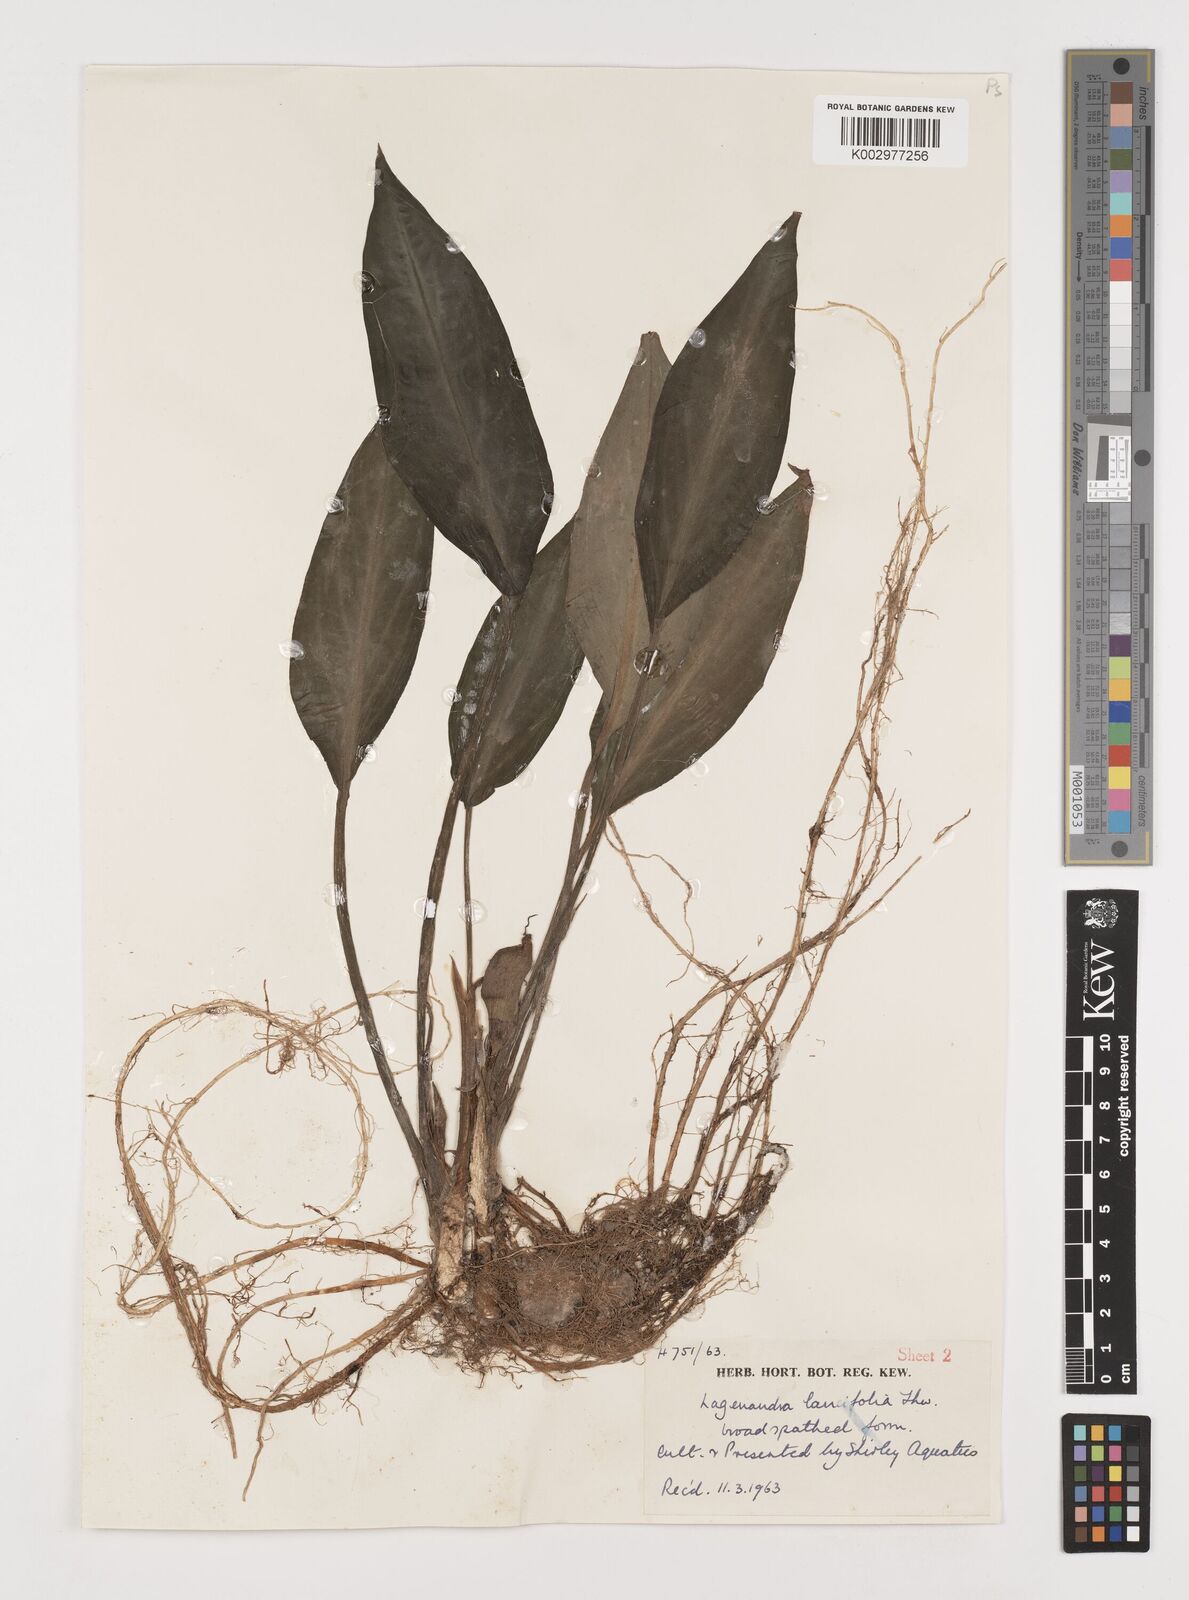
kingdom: Plantae
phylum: Tracheophyta
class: Liliopsida
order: Alismatales
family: Araceae
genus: Lagenandra
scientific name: Lagenandra lancifolia
